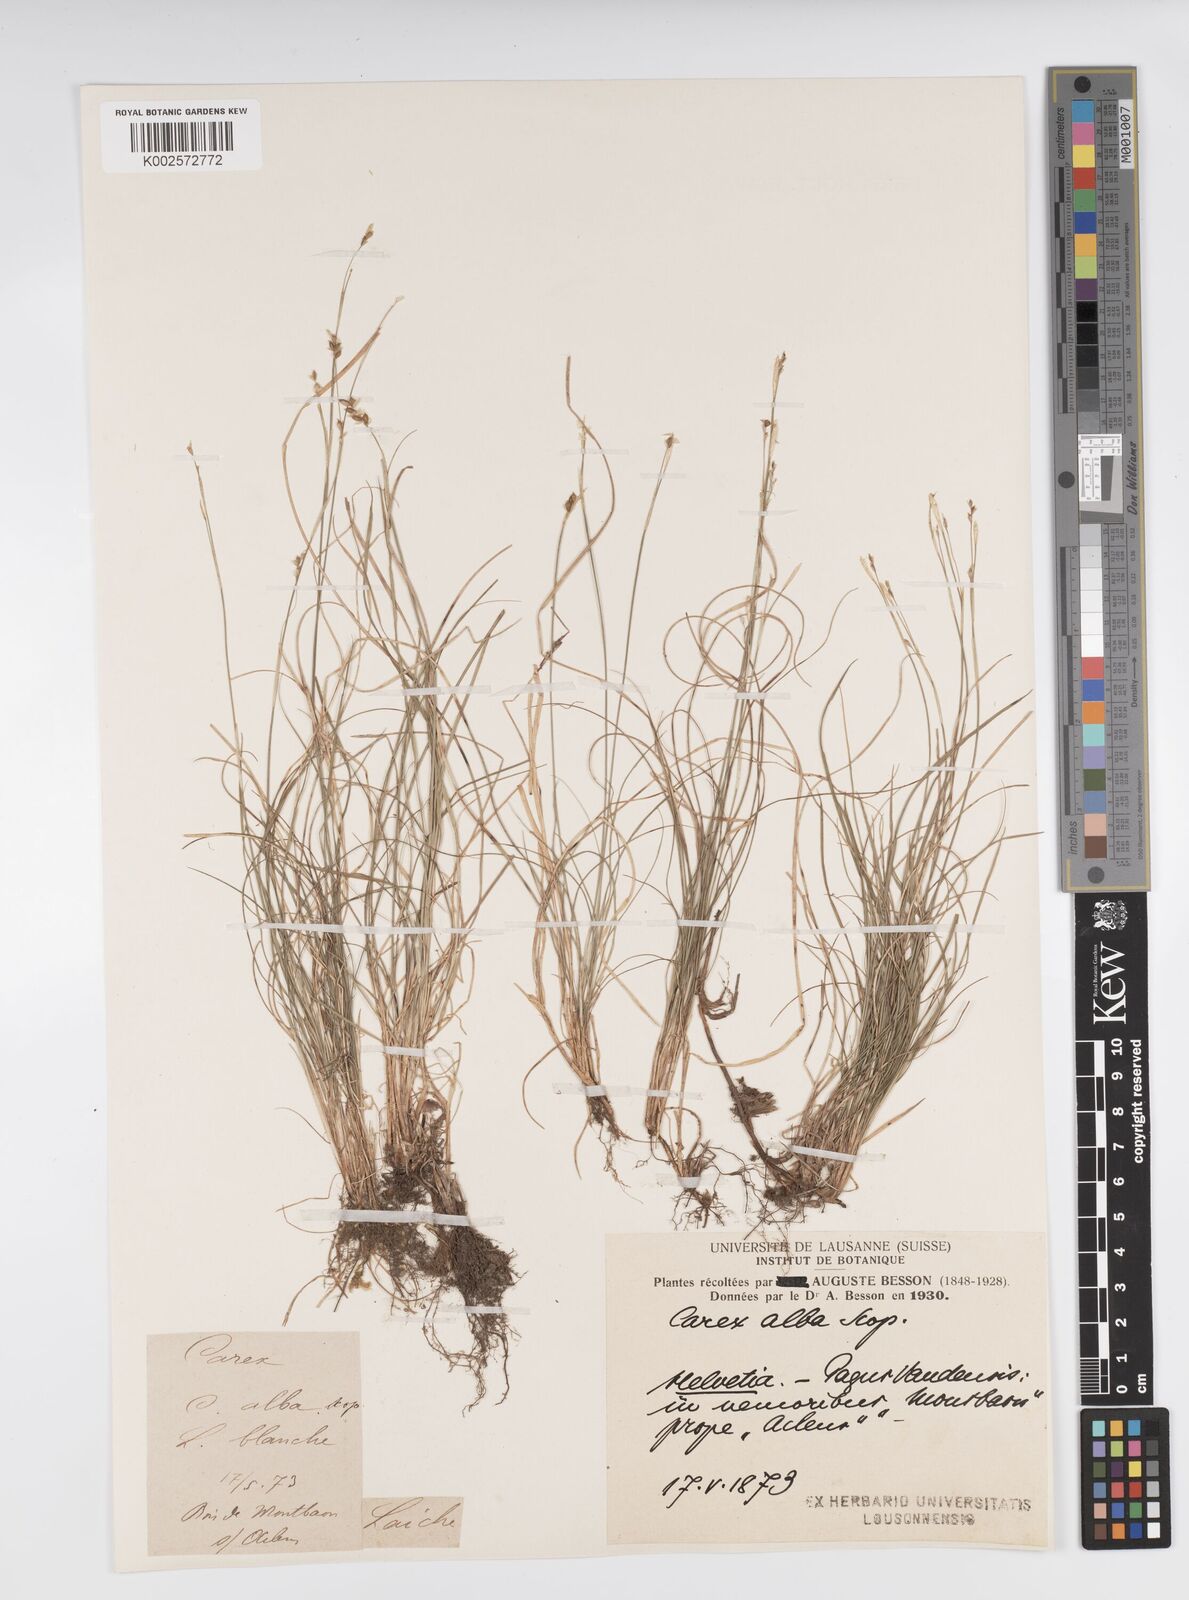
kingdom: Plantae
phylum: Tracheophyta
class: Liliopsida
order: Poales
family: Cyperaceae
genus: Carex
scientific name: Carex alba
